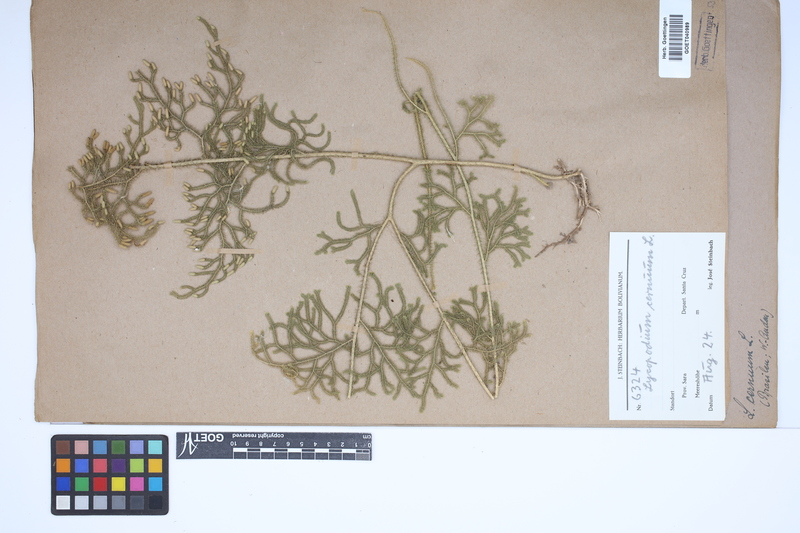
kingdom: Plantae
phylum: Tracheophyta
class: Lycopodiopsida
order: Lycopodiales
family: Lycopodiaceae
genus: Palhinhaea
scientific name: Palhinhaea cernua
